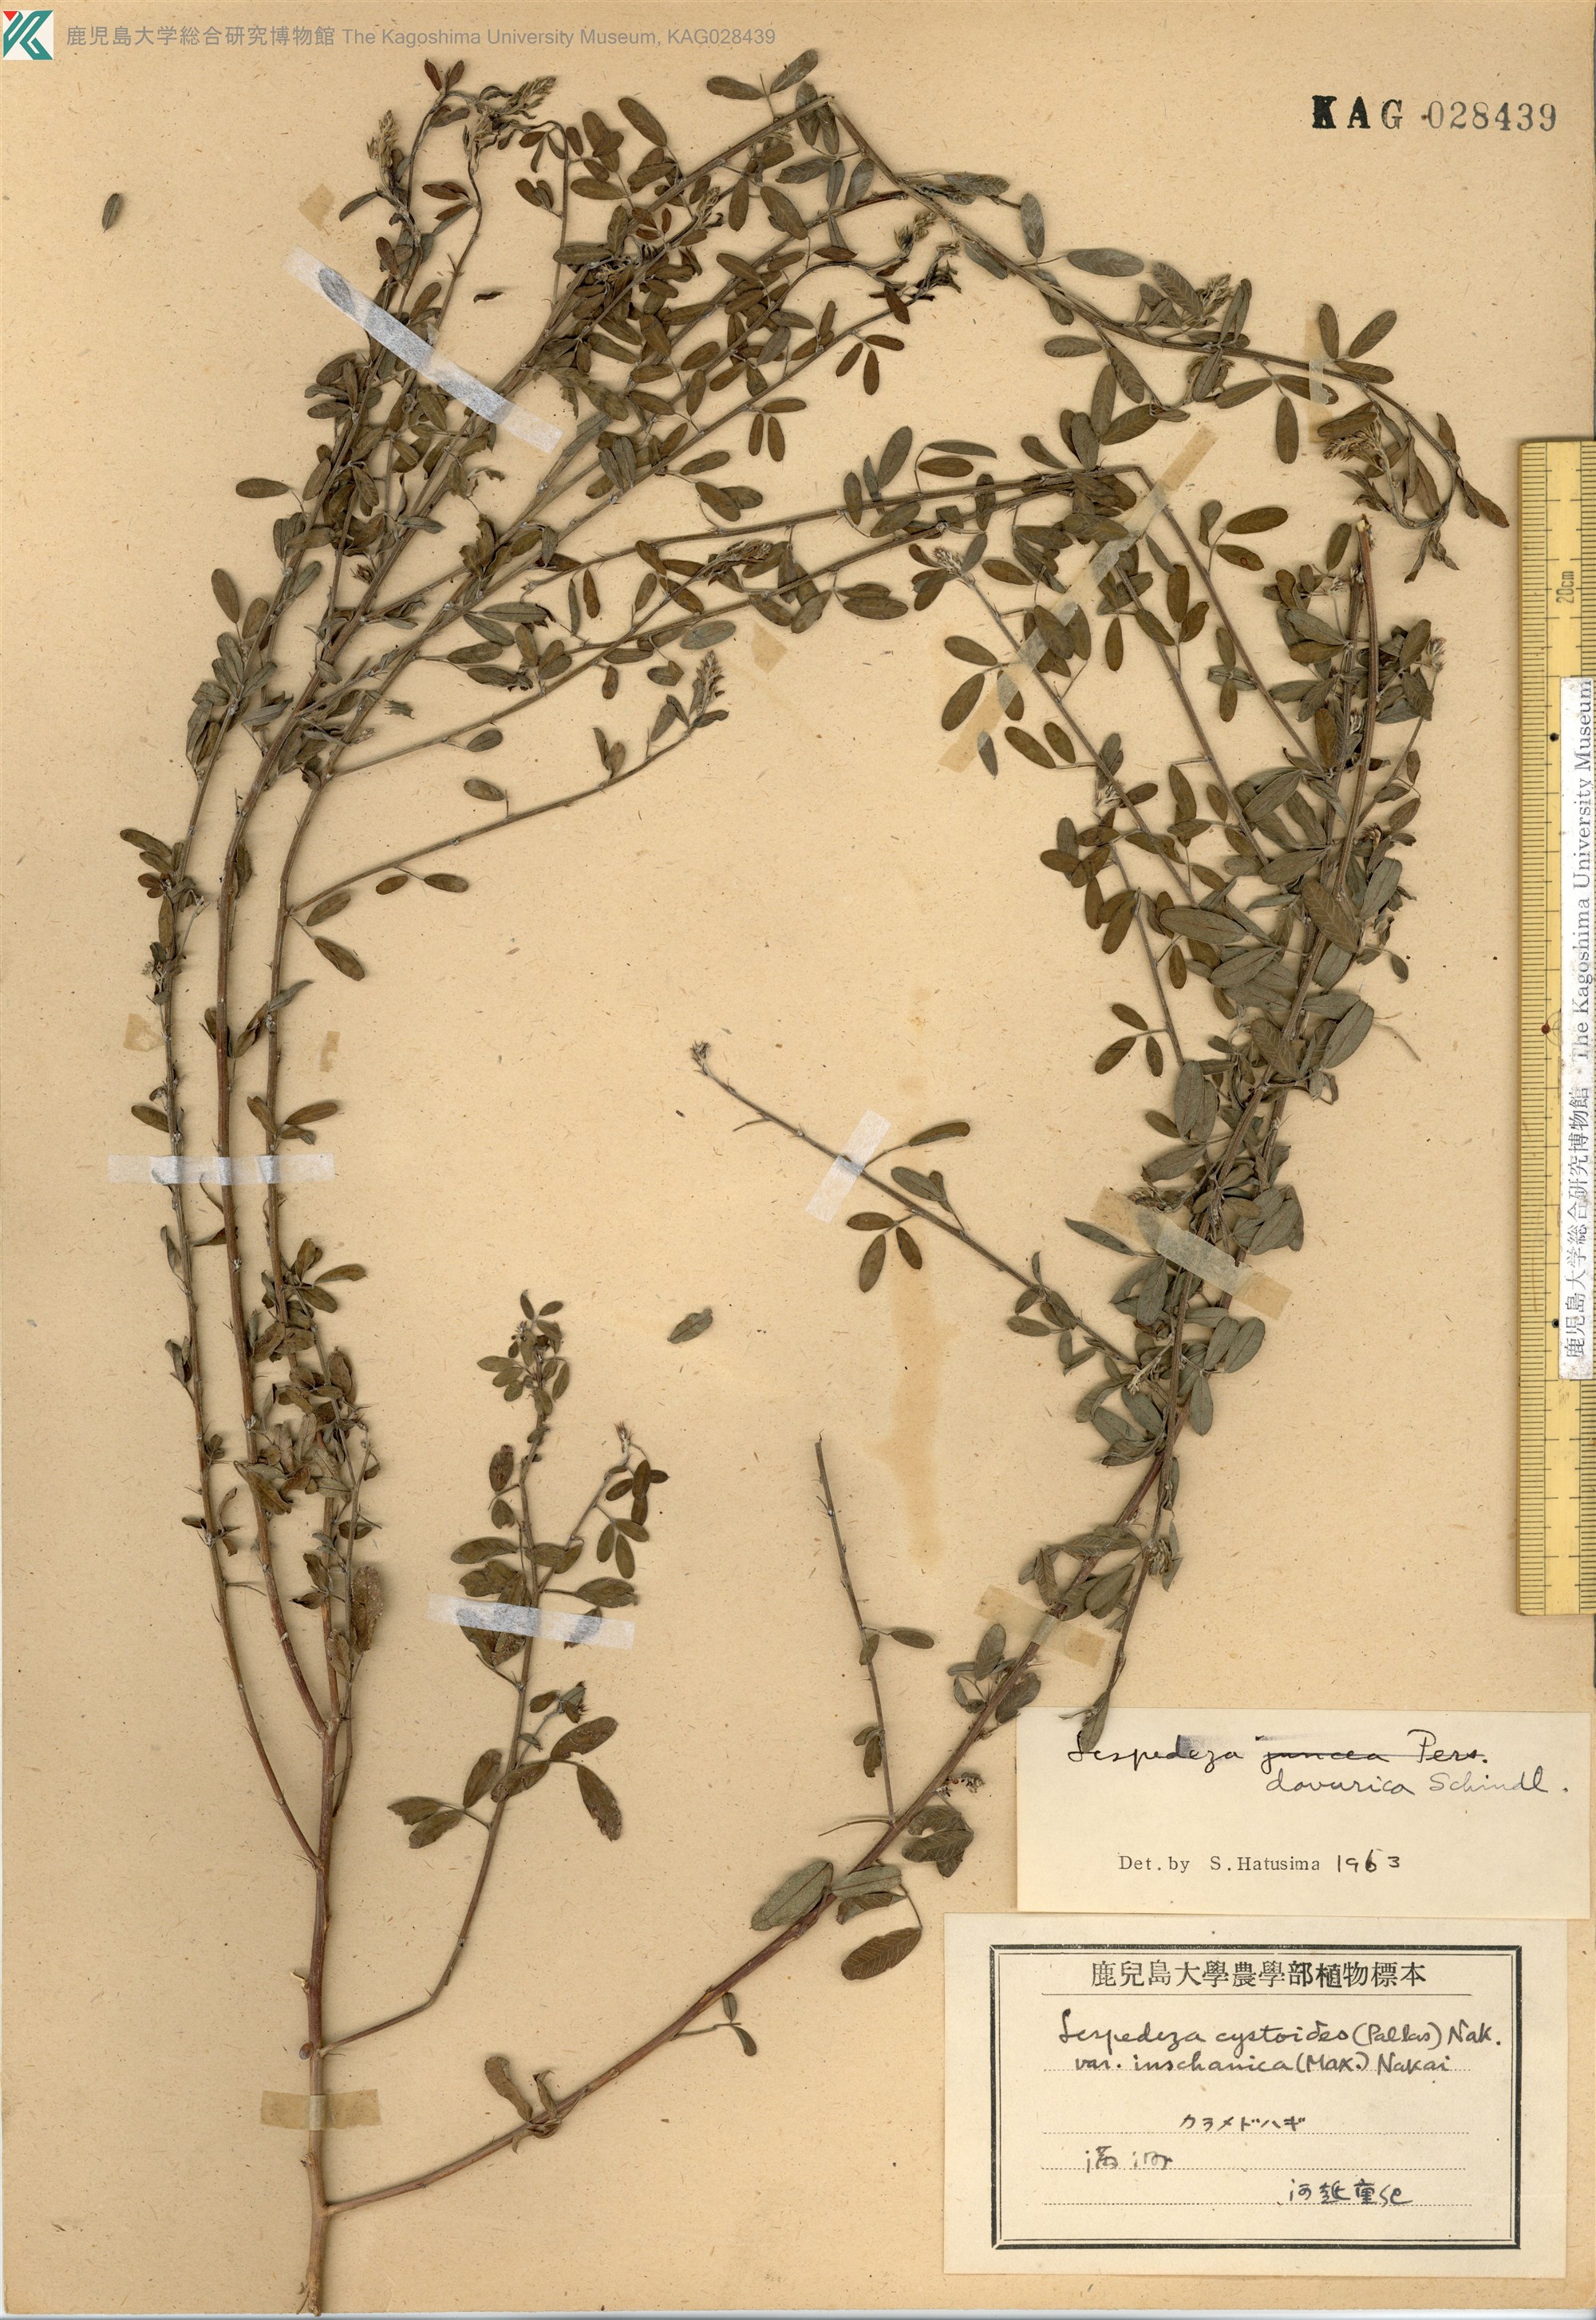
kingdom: Plantae
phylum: Tracheophyta
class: Magnoliopsida
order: Fabales
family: Fabaceae
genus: Lespedeza
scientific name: Lespedeza juncea
